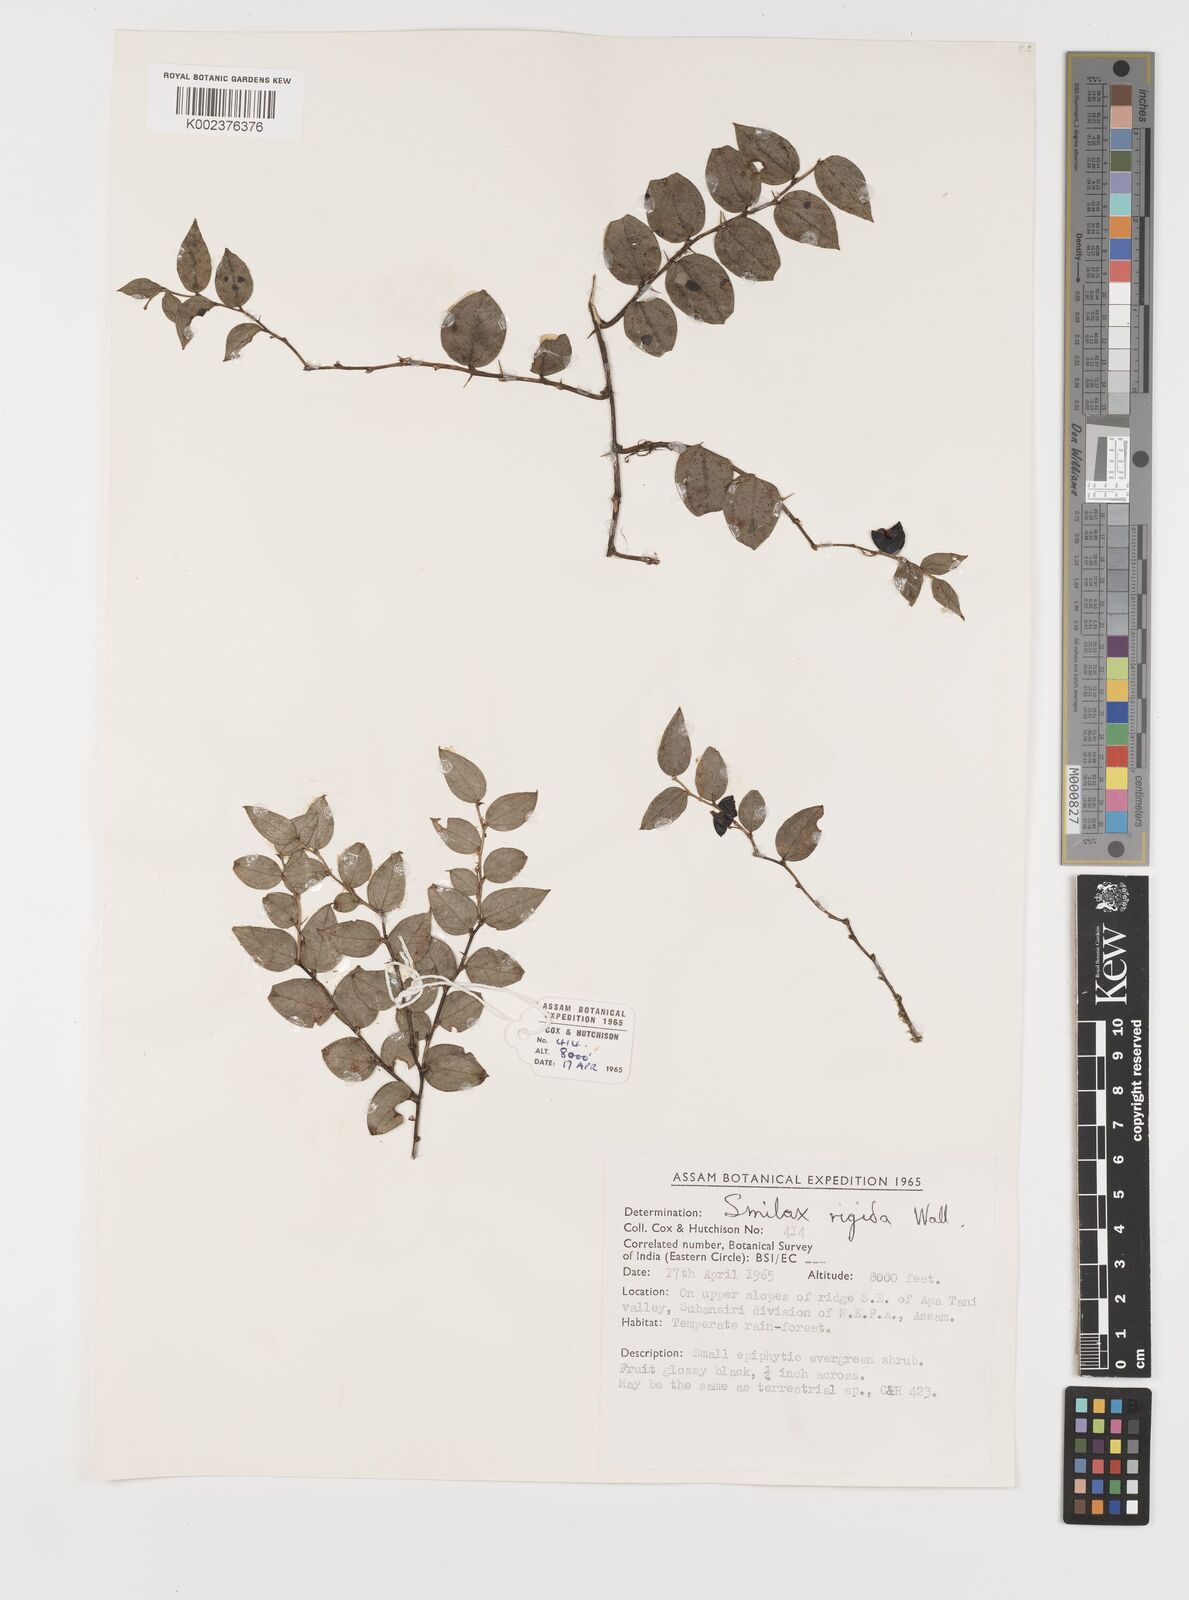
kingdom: Plantae
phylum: Tracheophyta
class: Liliopsida
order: Liliales
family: Smilacaceae
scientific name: Smilacaceae
